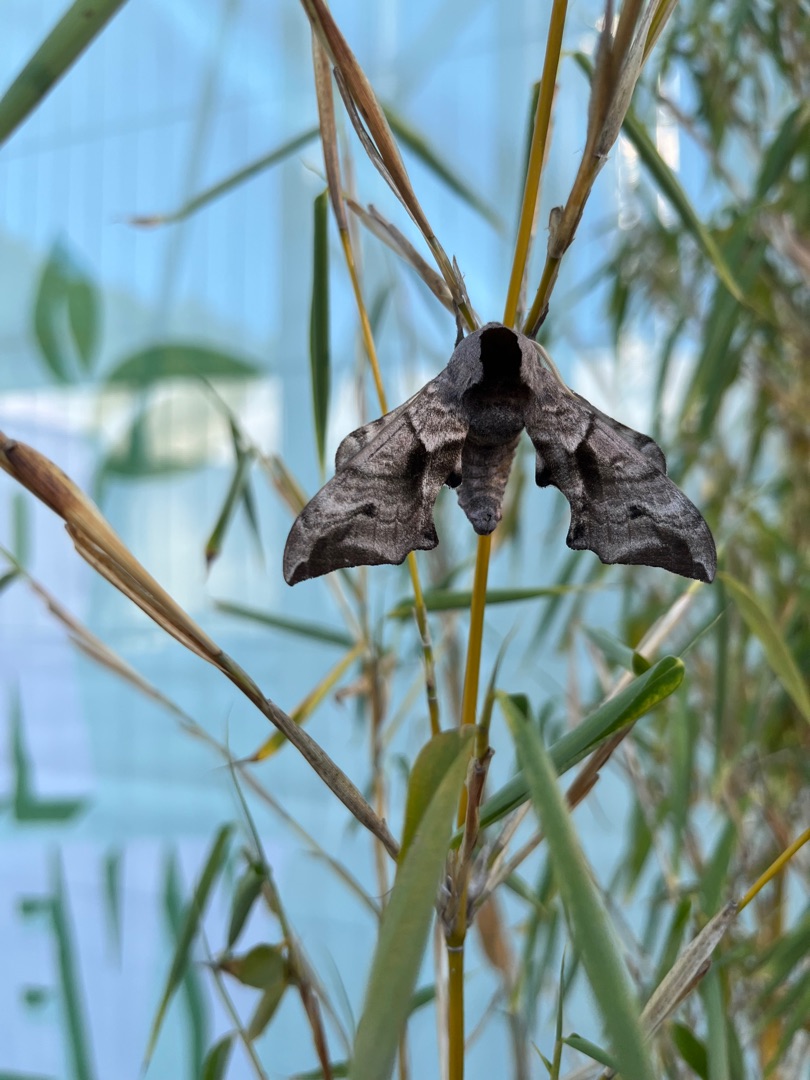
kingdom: Animalia
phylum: Arthropoda
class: Insecta
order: Lepidoptera
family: Sphingidae
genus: Smerinthus
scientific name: Smerinthus ocellata
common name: Aftenpåfugleøje
